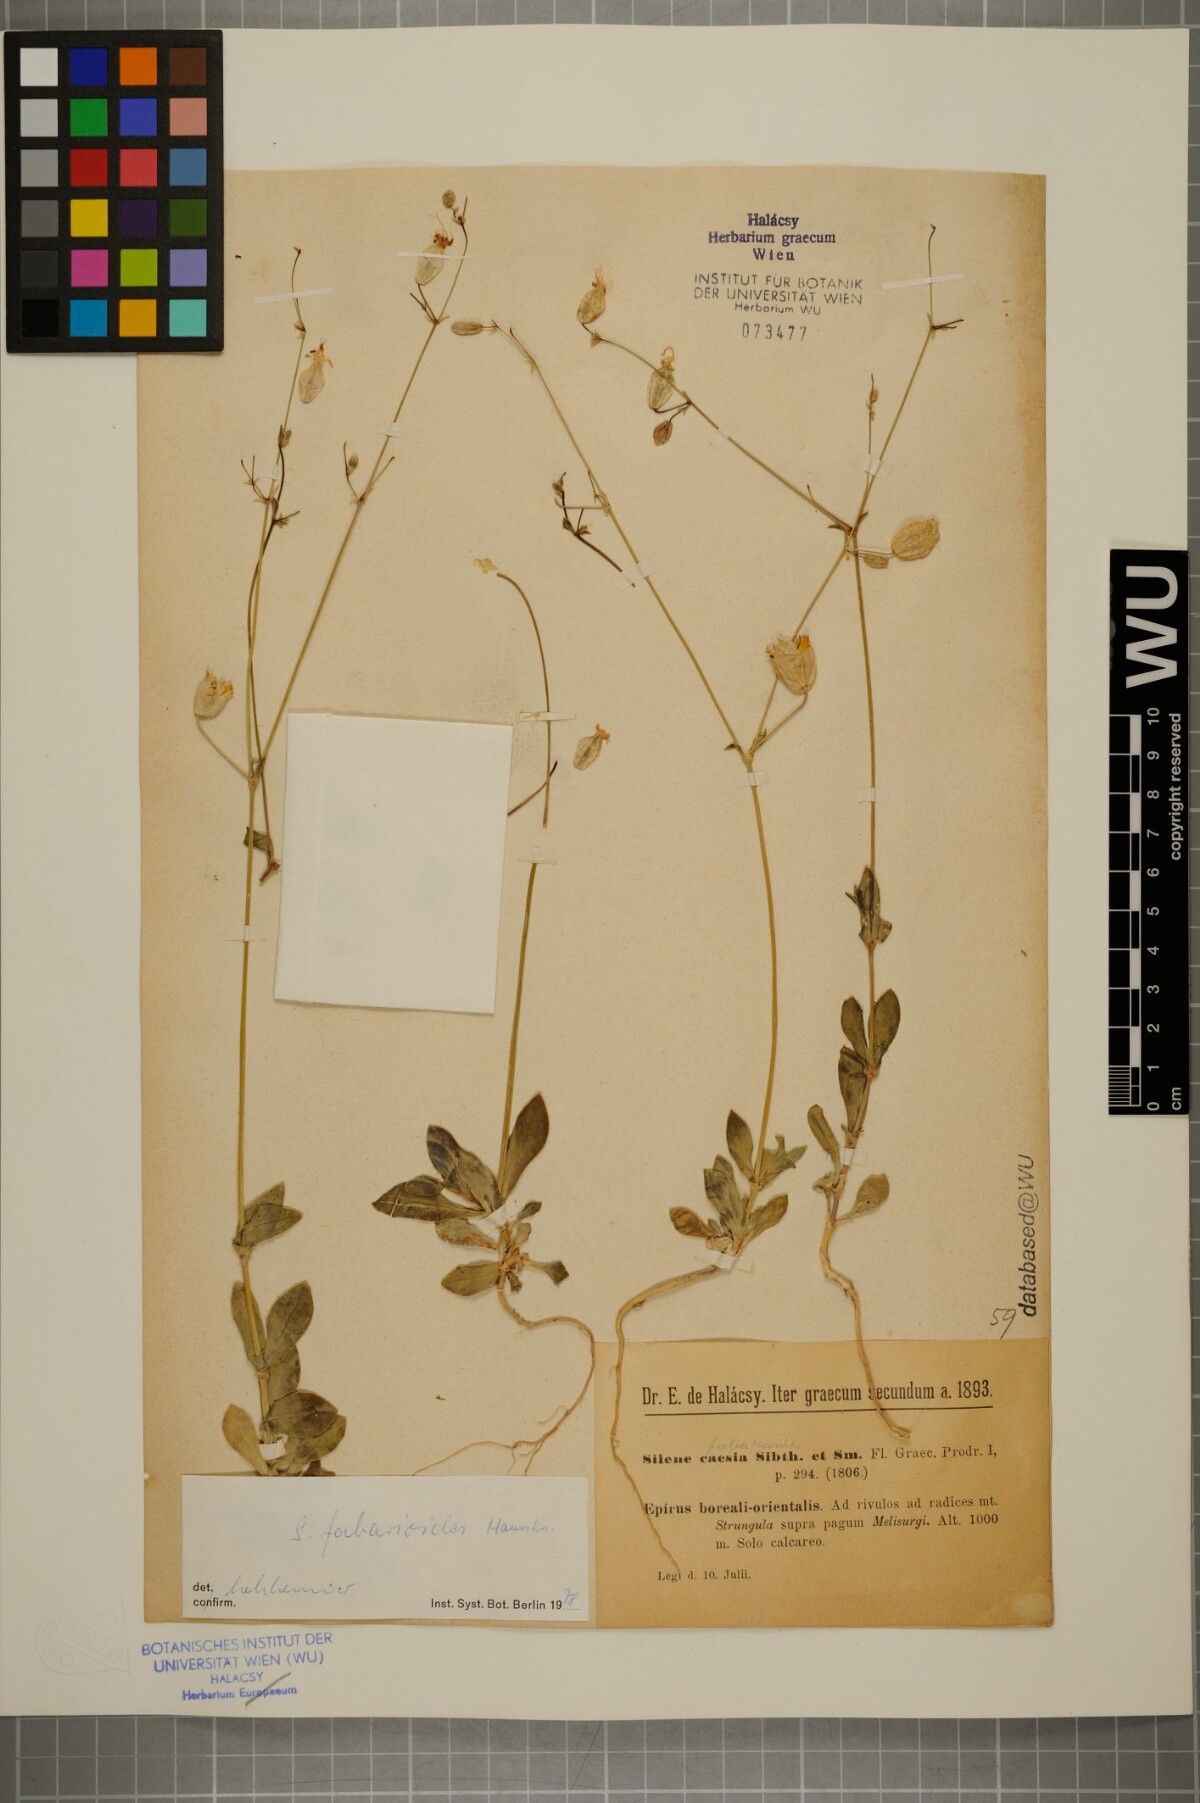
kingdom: Plantae
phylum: Tracheophyta
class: Magnoliopsida
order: Caryophyllales
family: Caryophyllaceae
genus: Silene
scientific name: Silene fabarioides
